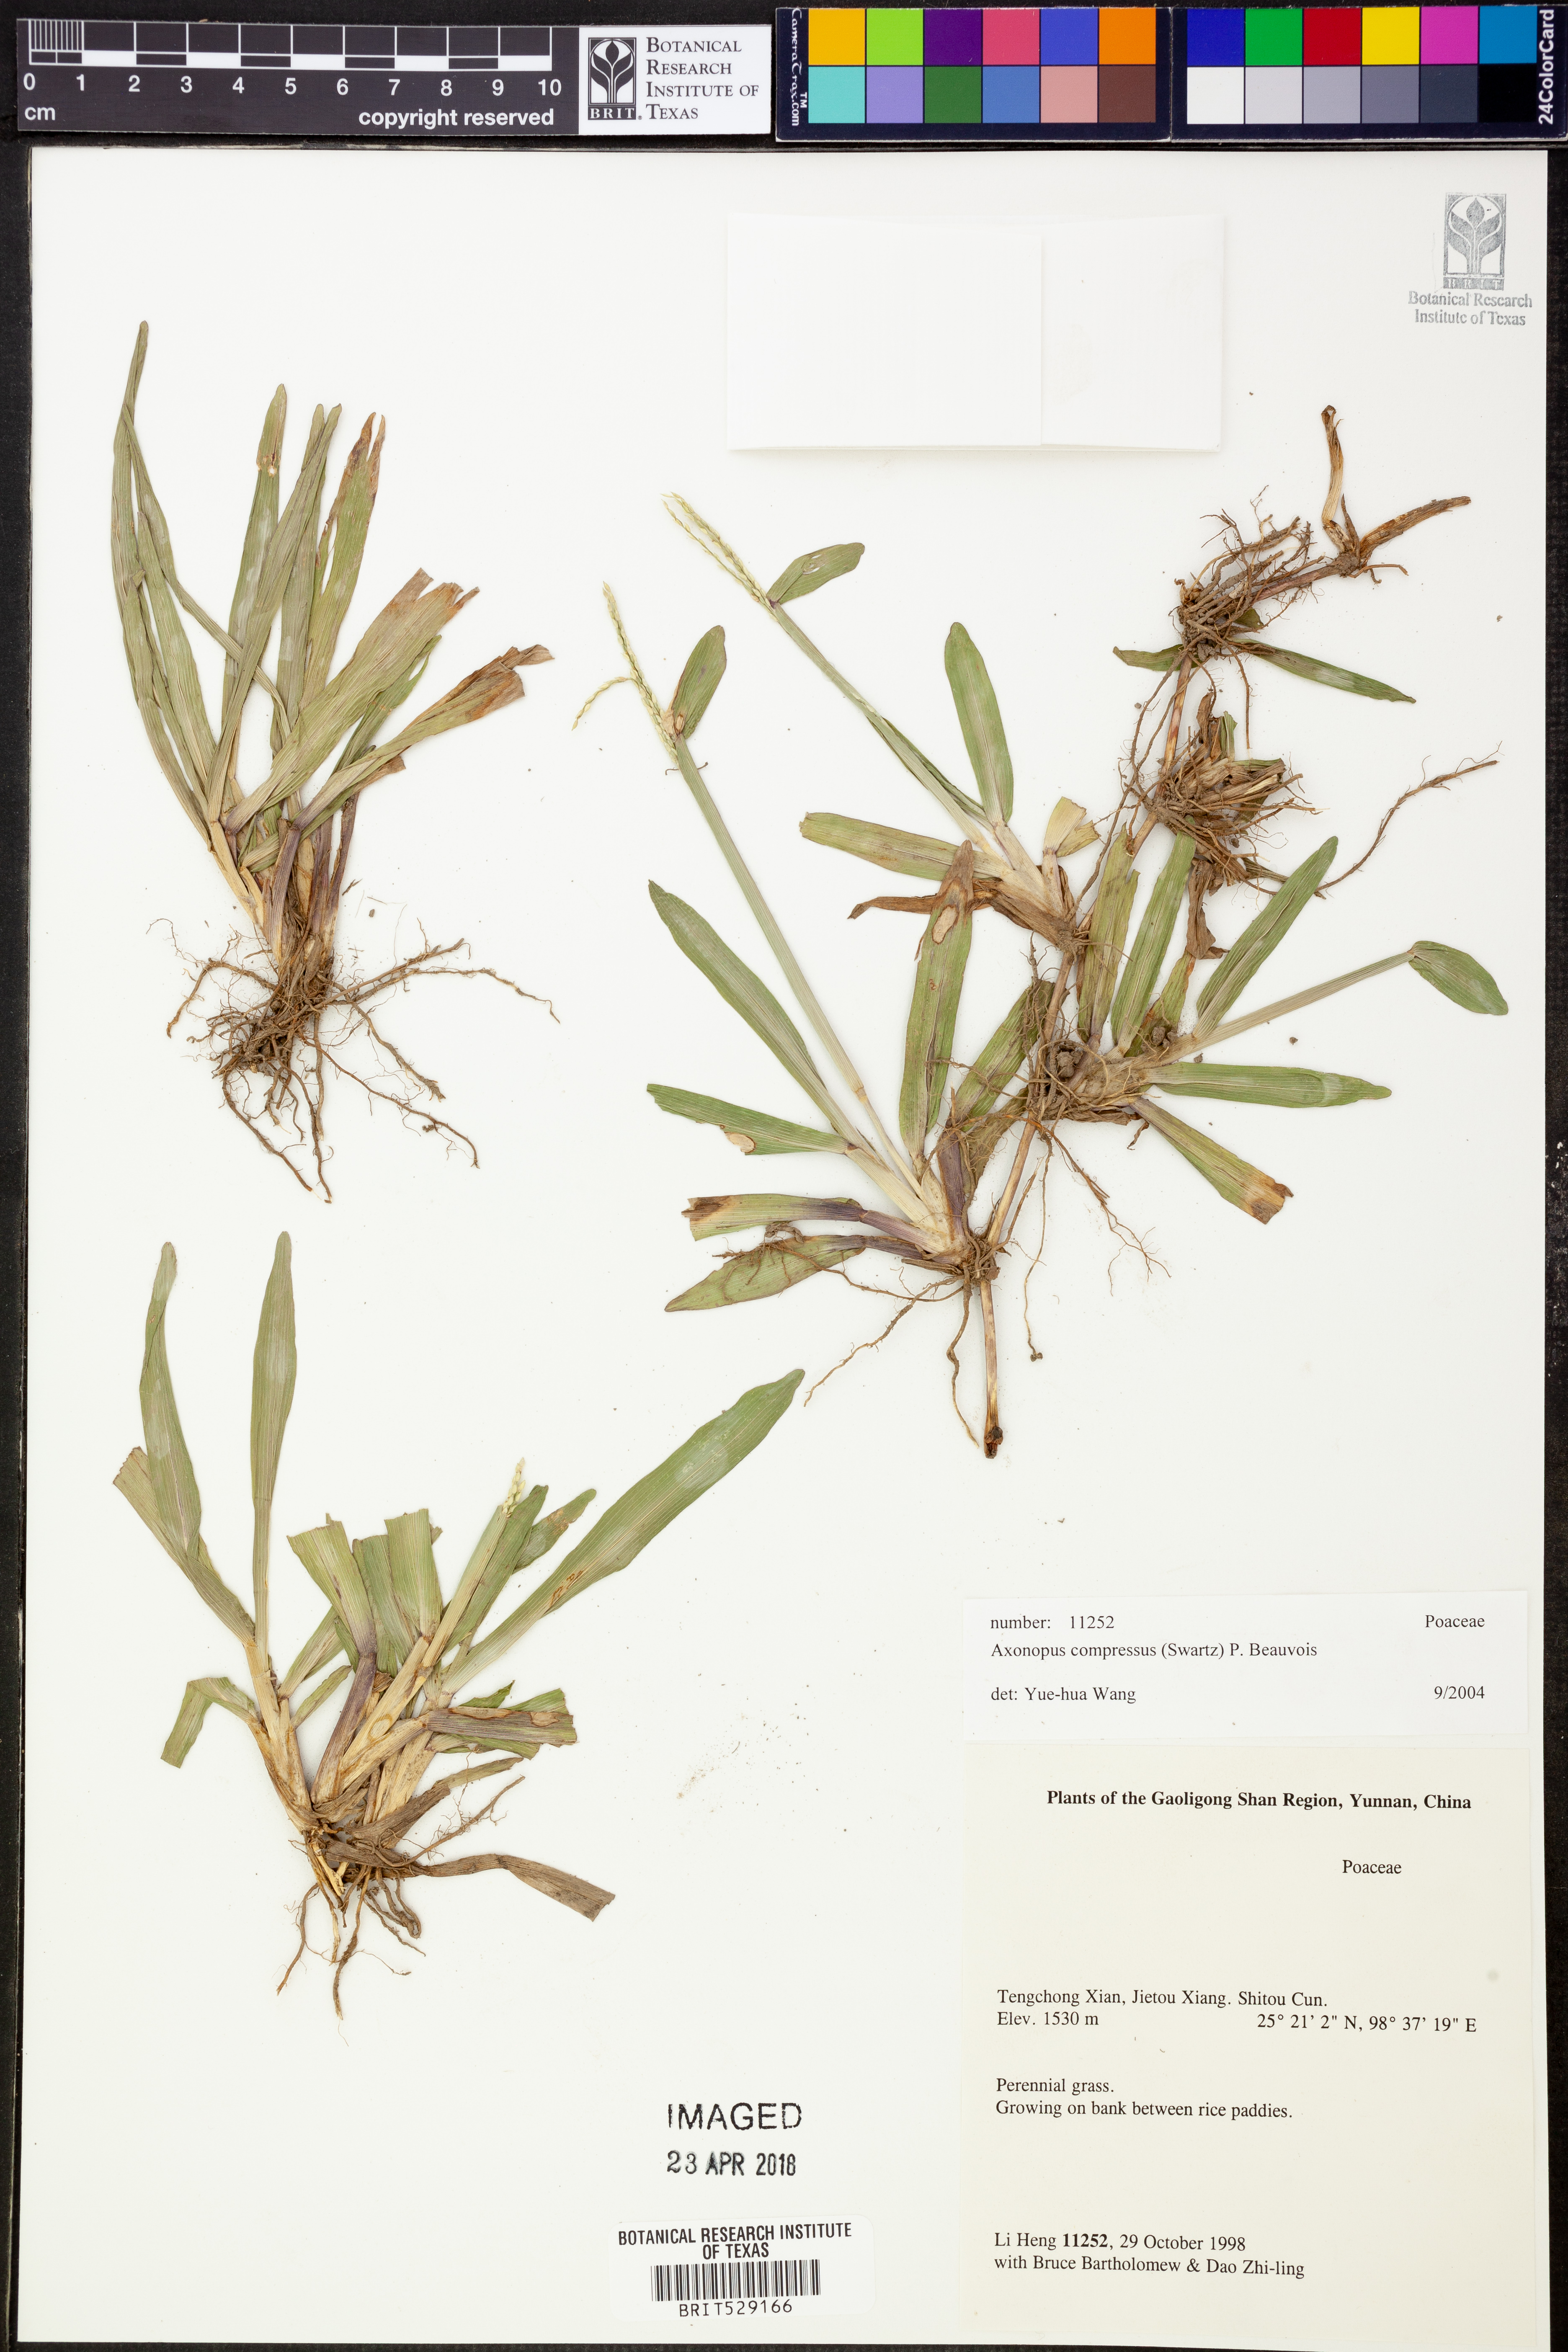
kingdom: Plantae
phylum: Tracheophyta
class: Liliopsida
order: Poales
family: Poaceae
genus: Axonopus
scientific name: Axonopus compressus
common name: American carpet grass
